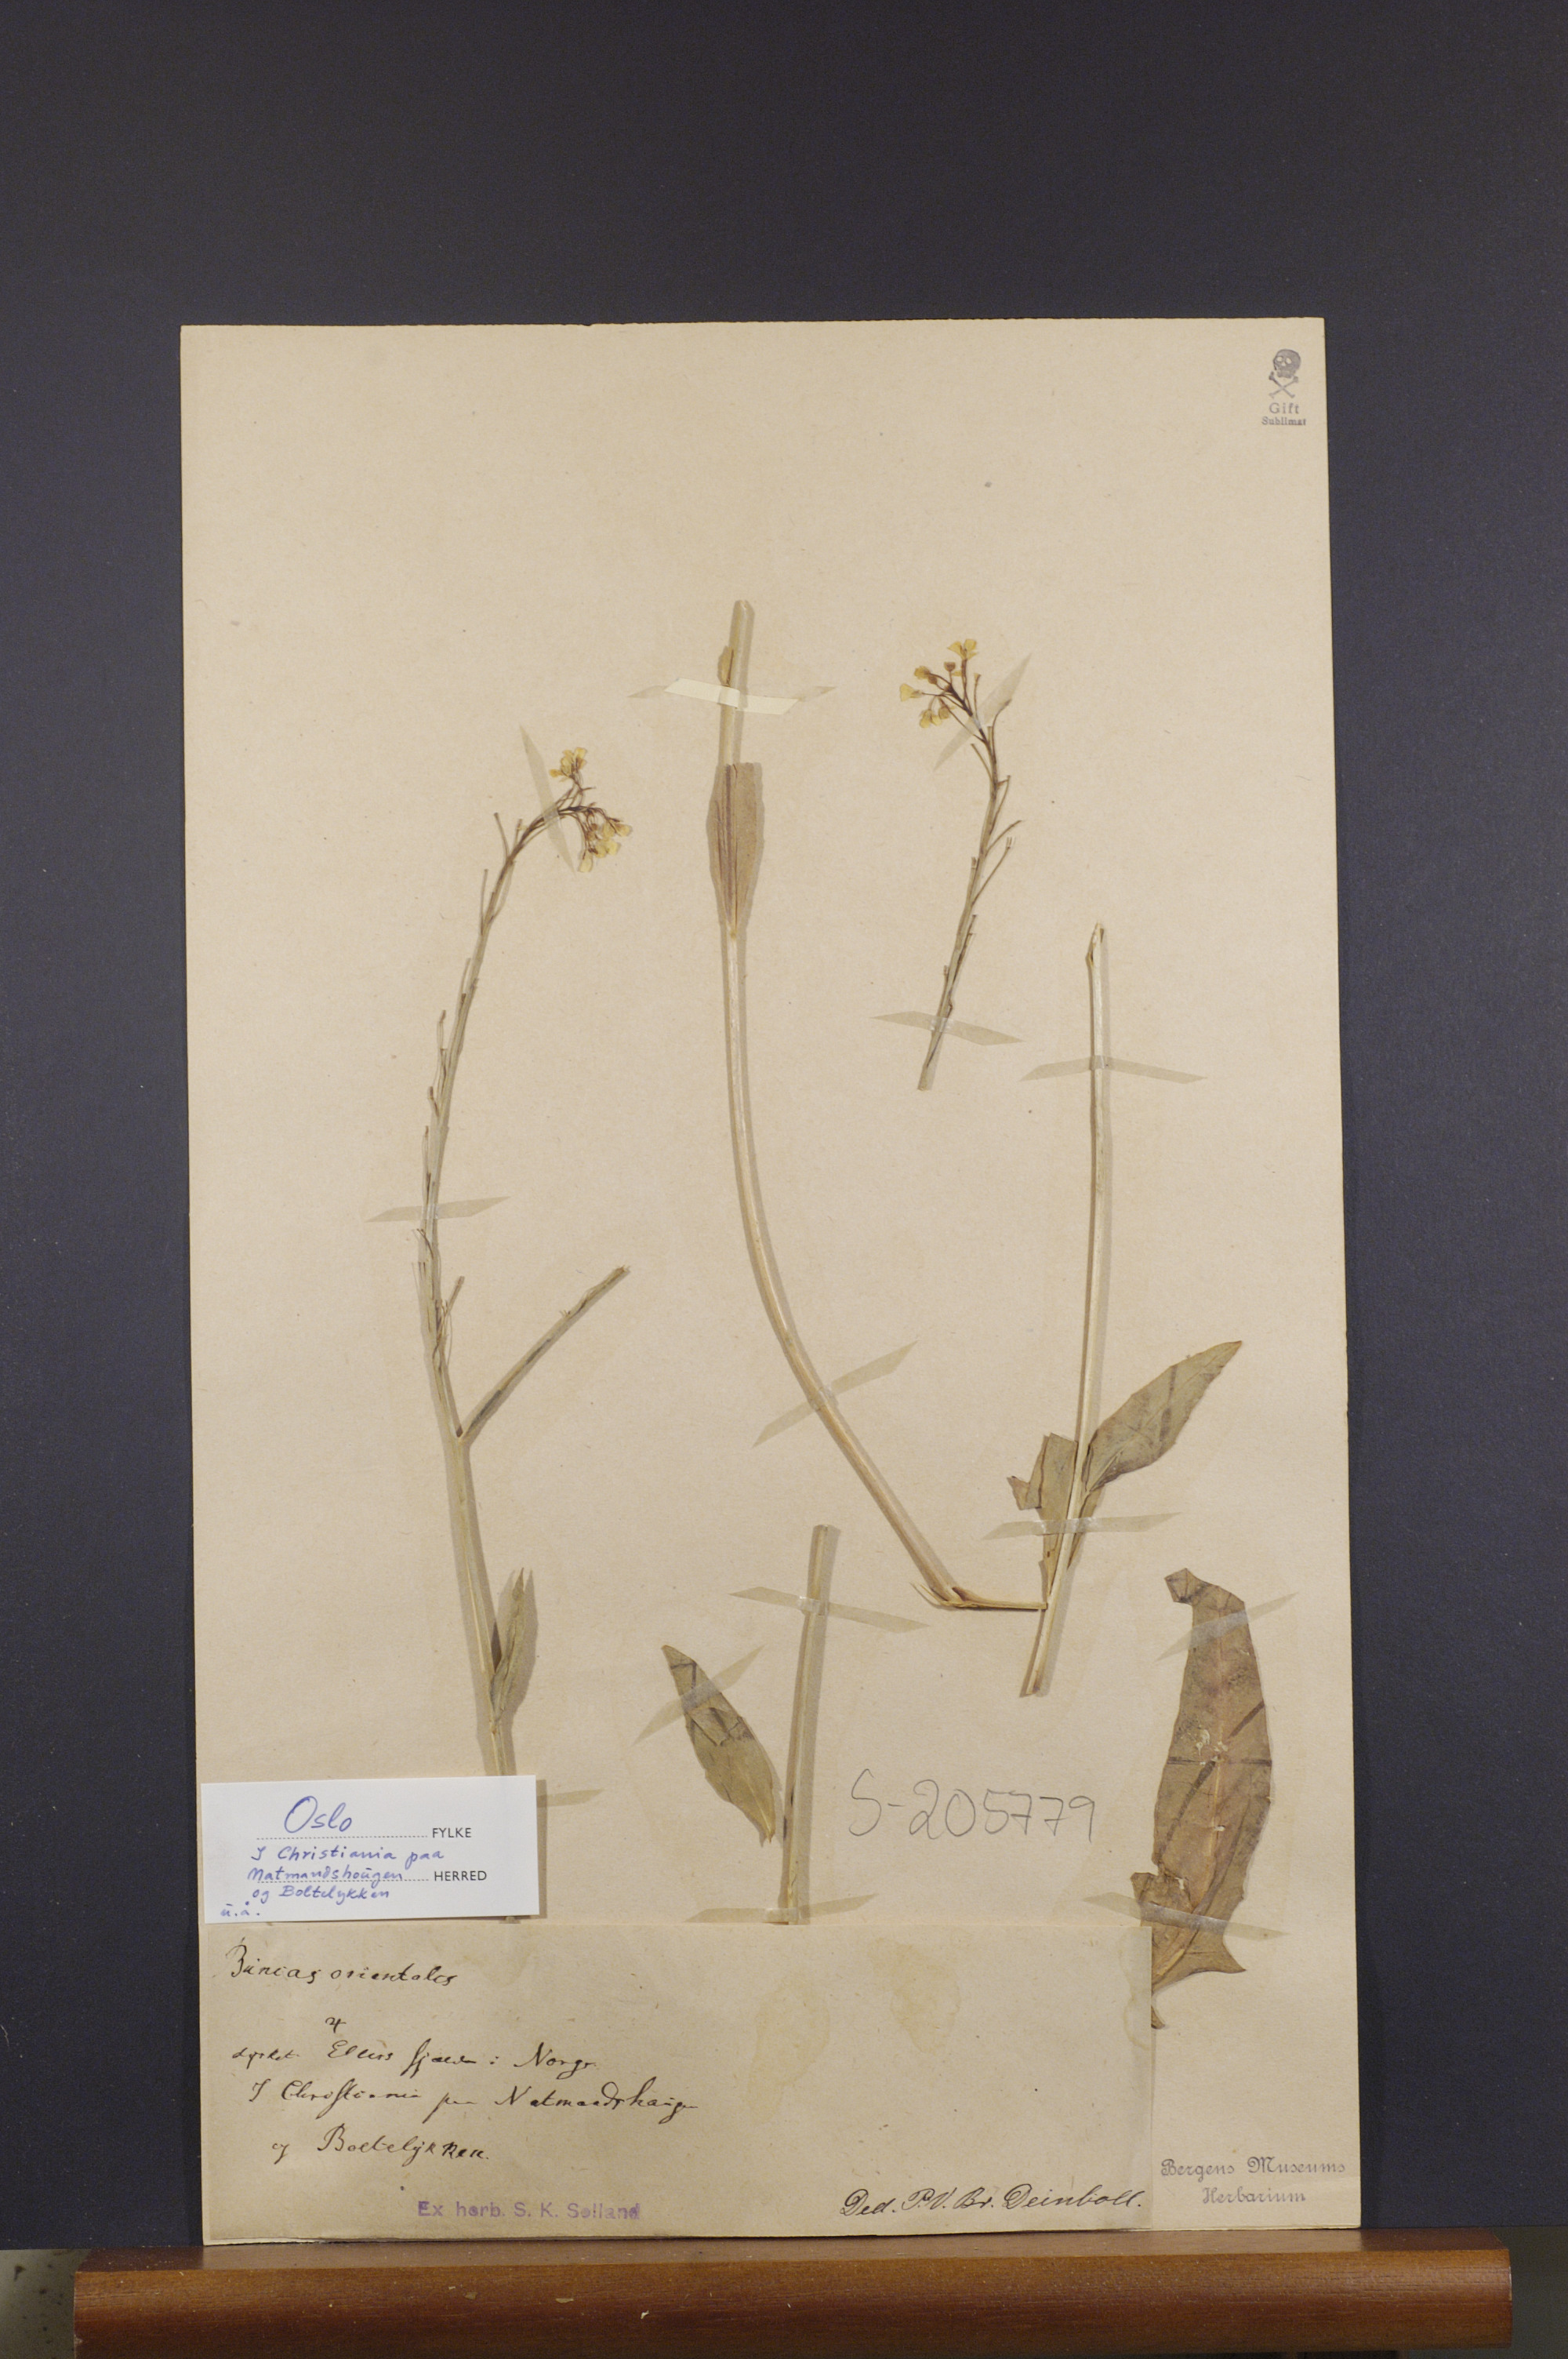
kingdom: Plantae
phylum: Tracheophyta
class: Magnoliopsida
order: Brassicales
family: Brassicaceae
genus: Bunias
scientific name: Bunias orientalis
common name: Warty-cabbage
